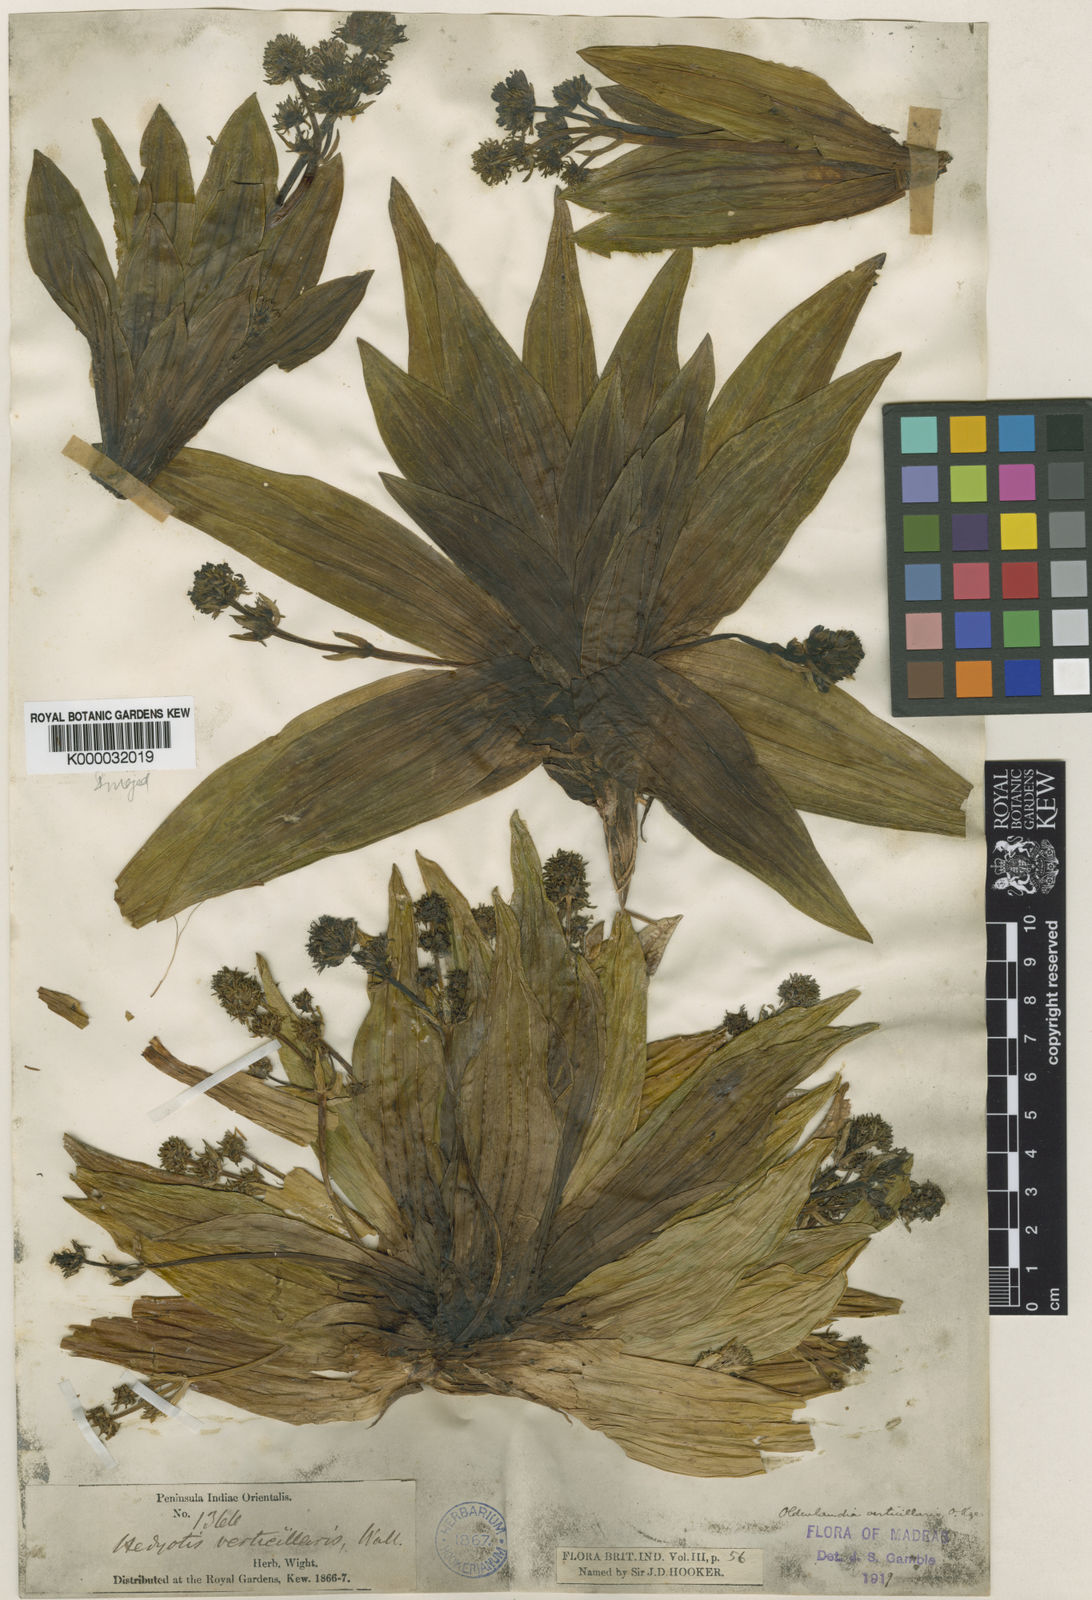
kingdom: Plantae
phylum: Tracheophyta
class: Magnoliopsida
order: Gentianales
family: Rubiaceae
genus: Hedyotis
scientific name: Hedyotis verticillaris
